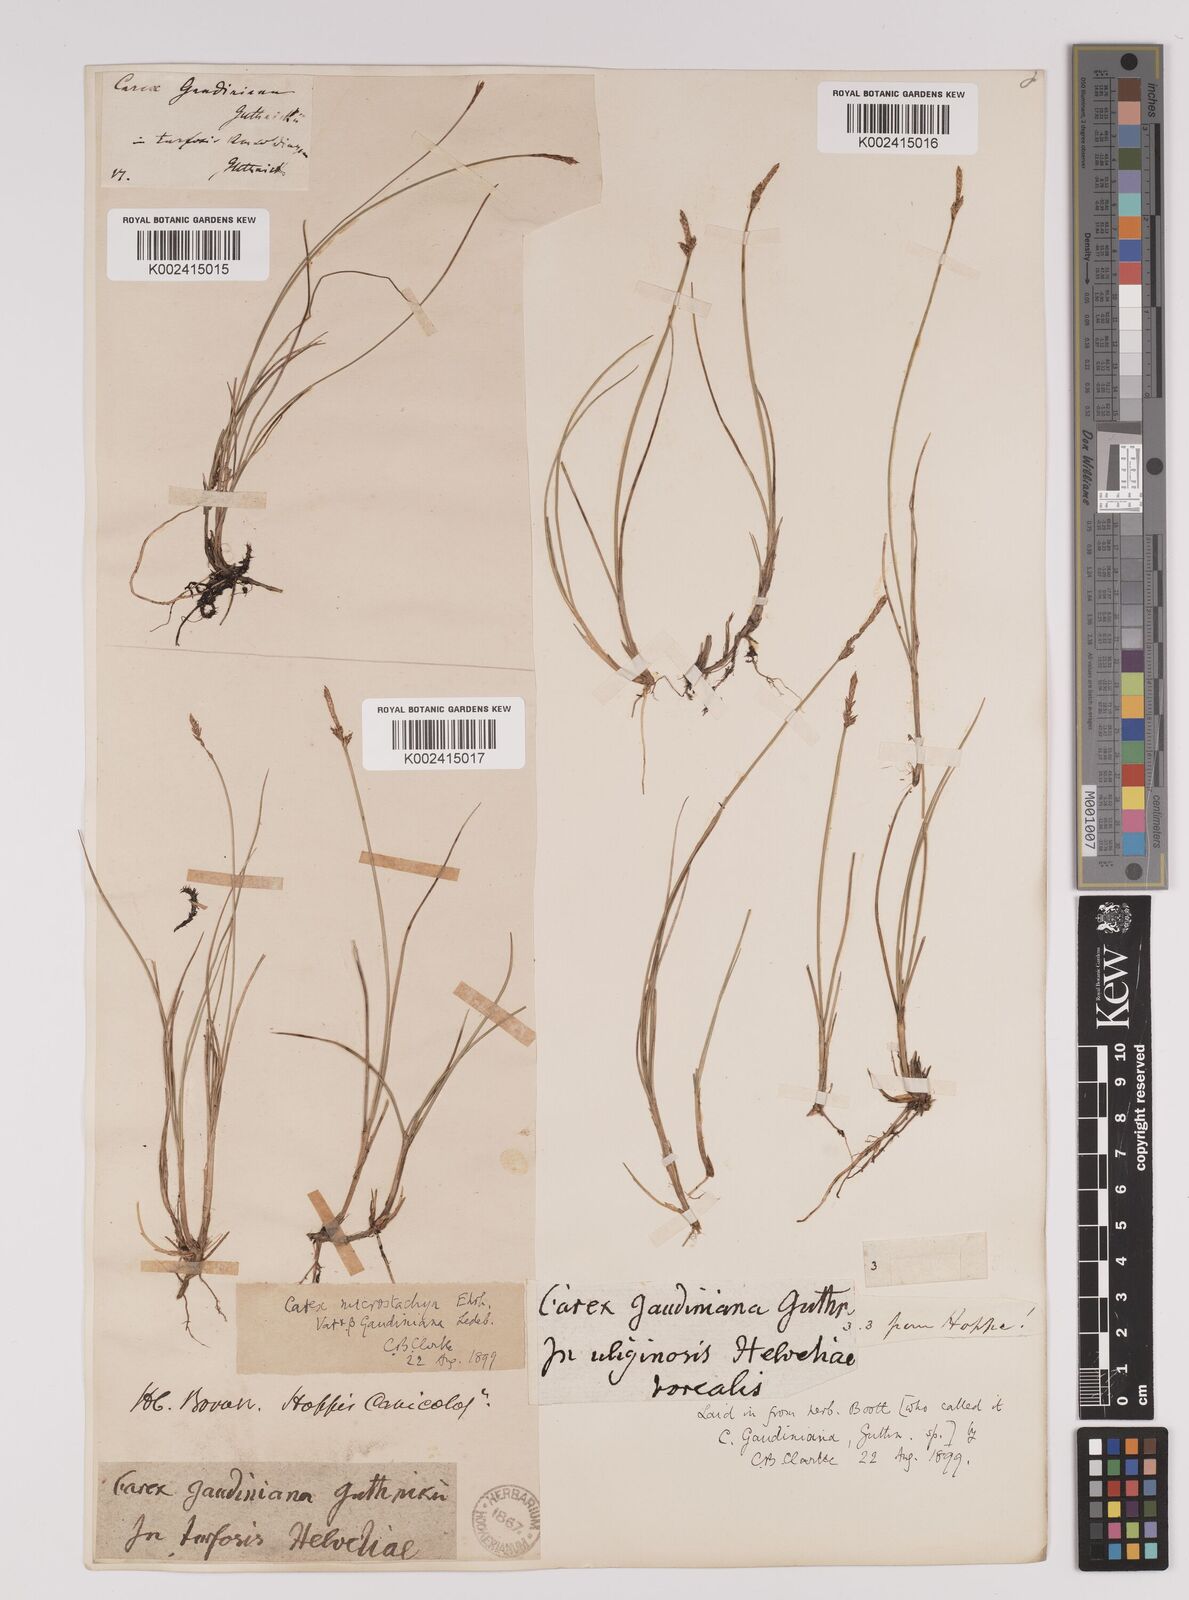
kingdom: Plantae
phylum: Tracheophyta
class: Liliopsida
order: Poales
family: Cyperaceae
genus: Carex
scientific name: Carex dioica
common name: Dioecious sedge
